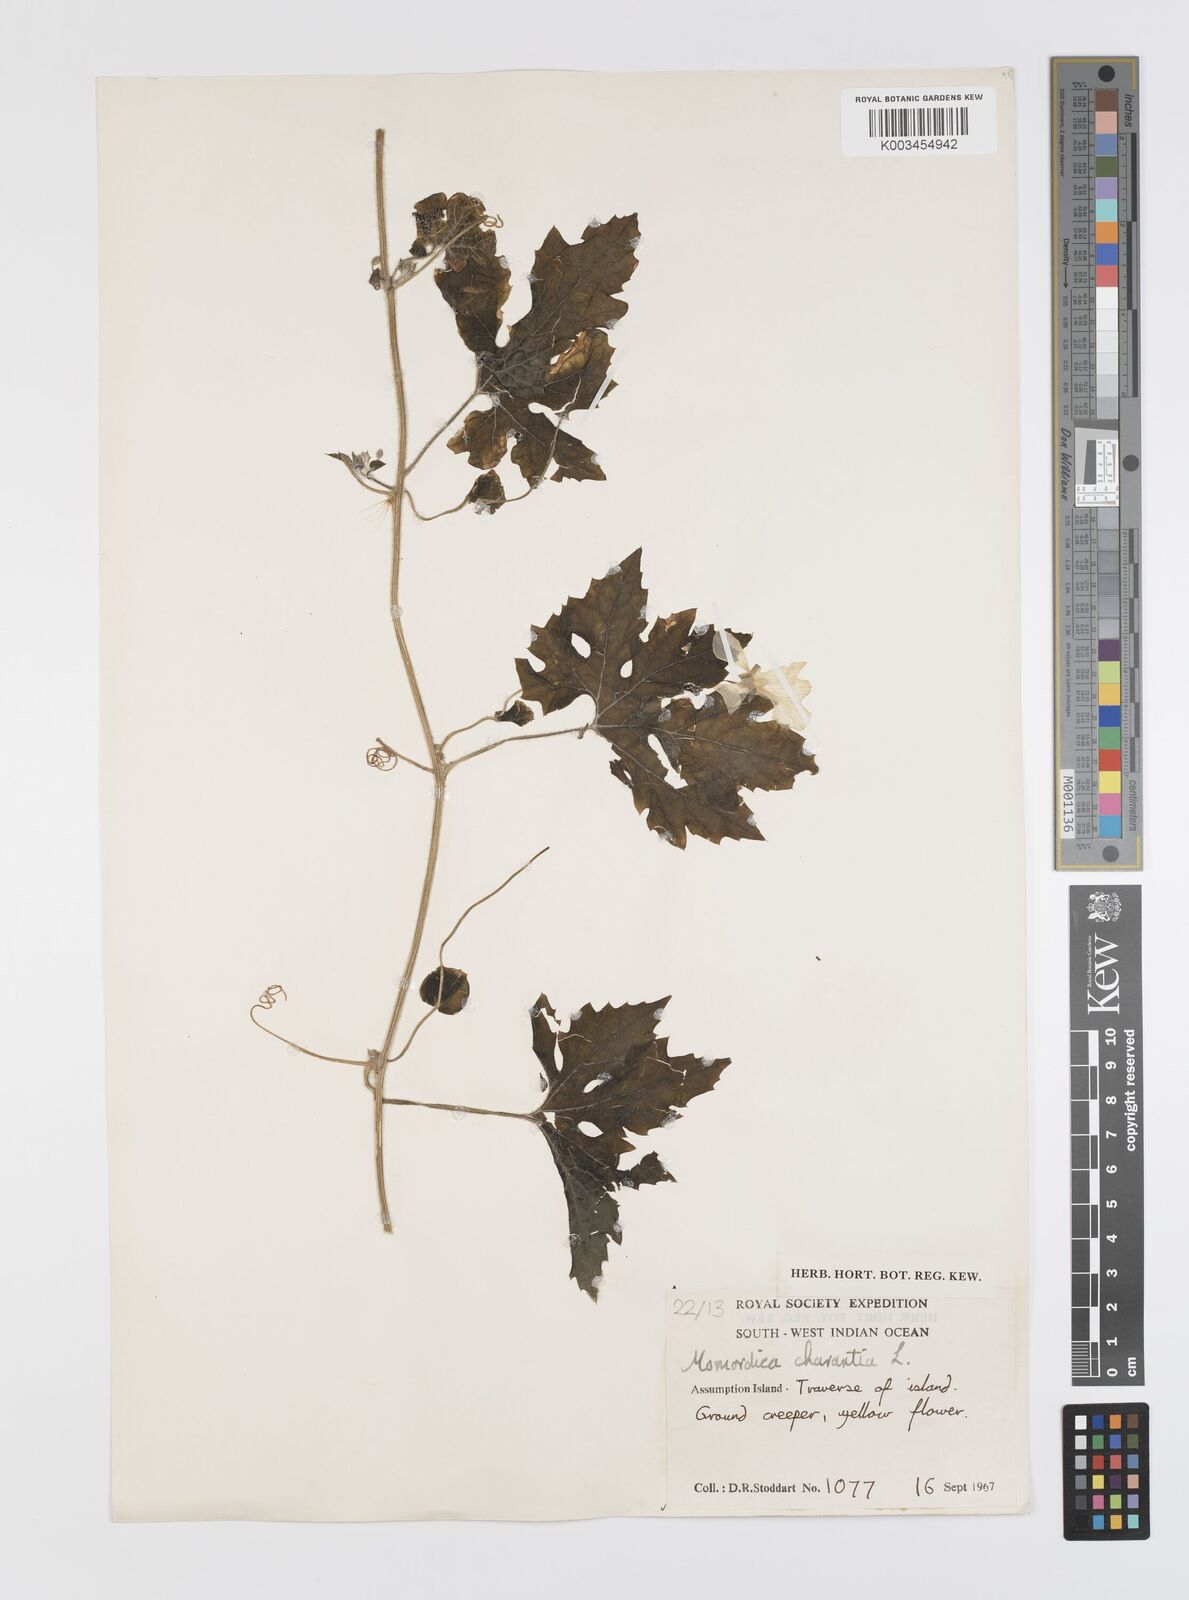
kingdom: Plantae
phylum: Tracheophyta
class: Magnoliopsida
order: Cucurbitales
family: Cucurbitaceae
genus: Momordica
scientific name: Momordica charantia
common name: Balsampear
